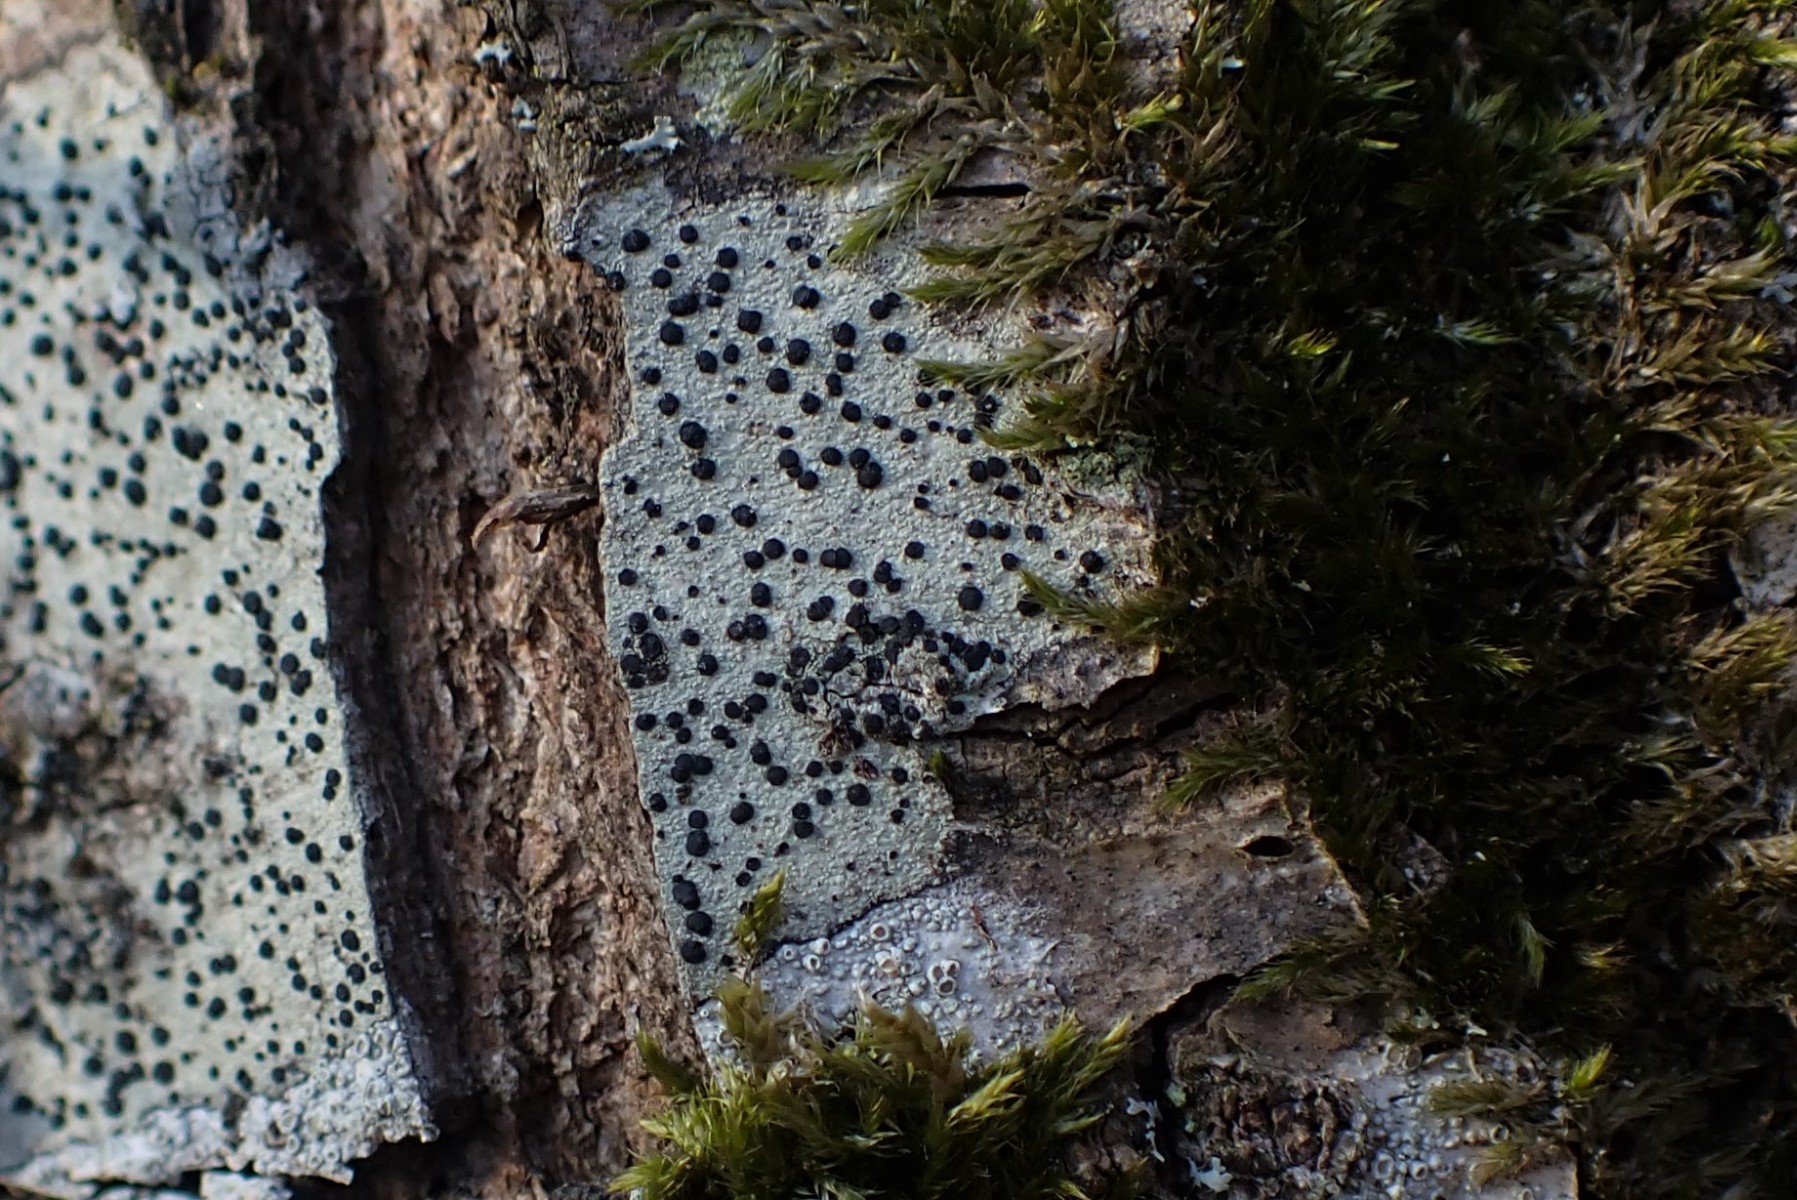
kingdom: Fungi
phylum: Ascomycota
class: Lecanoromycetes
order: Lecanorales
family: Lecanoraceae
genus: Lecidella
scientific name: Lecidella elaeochroma
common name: grågrøn skivelav
